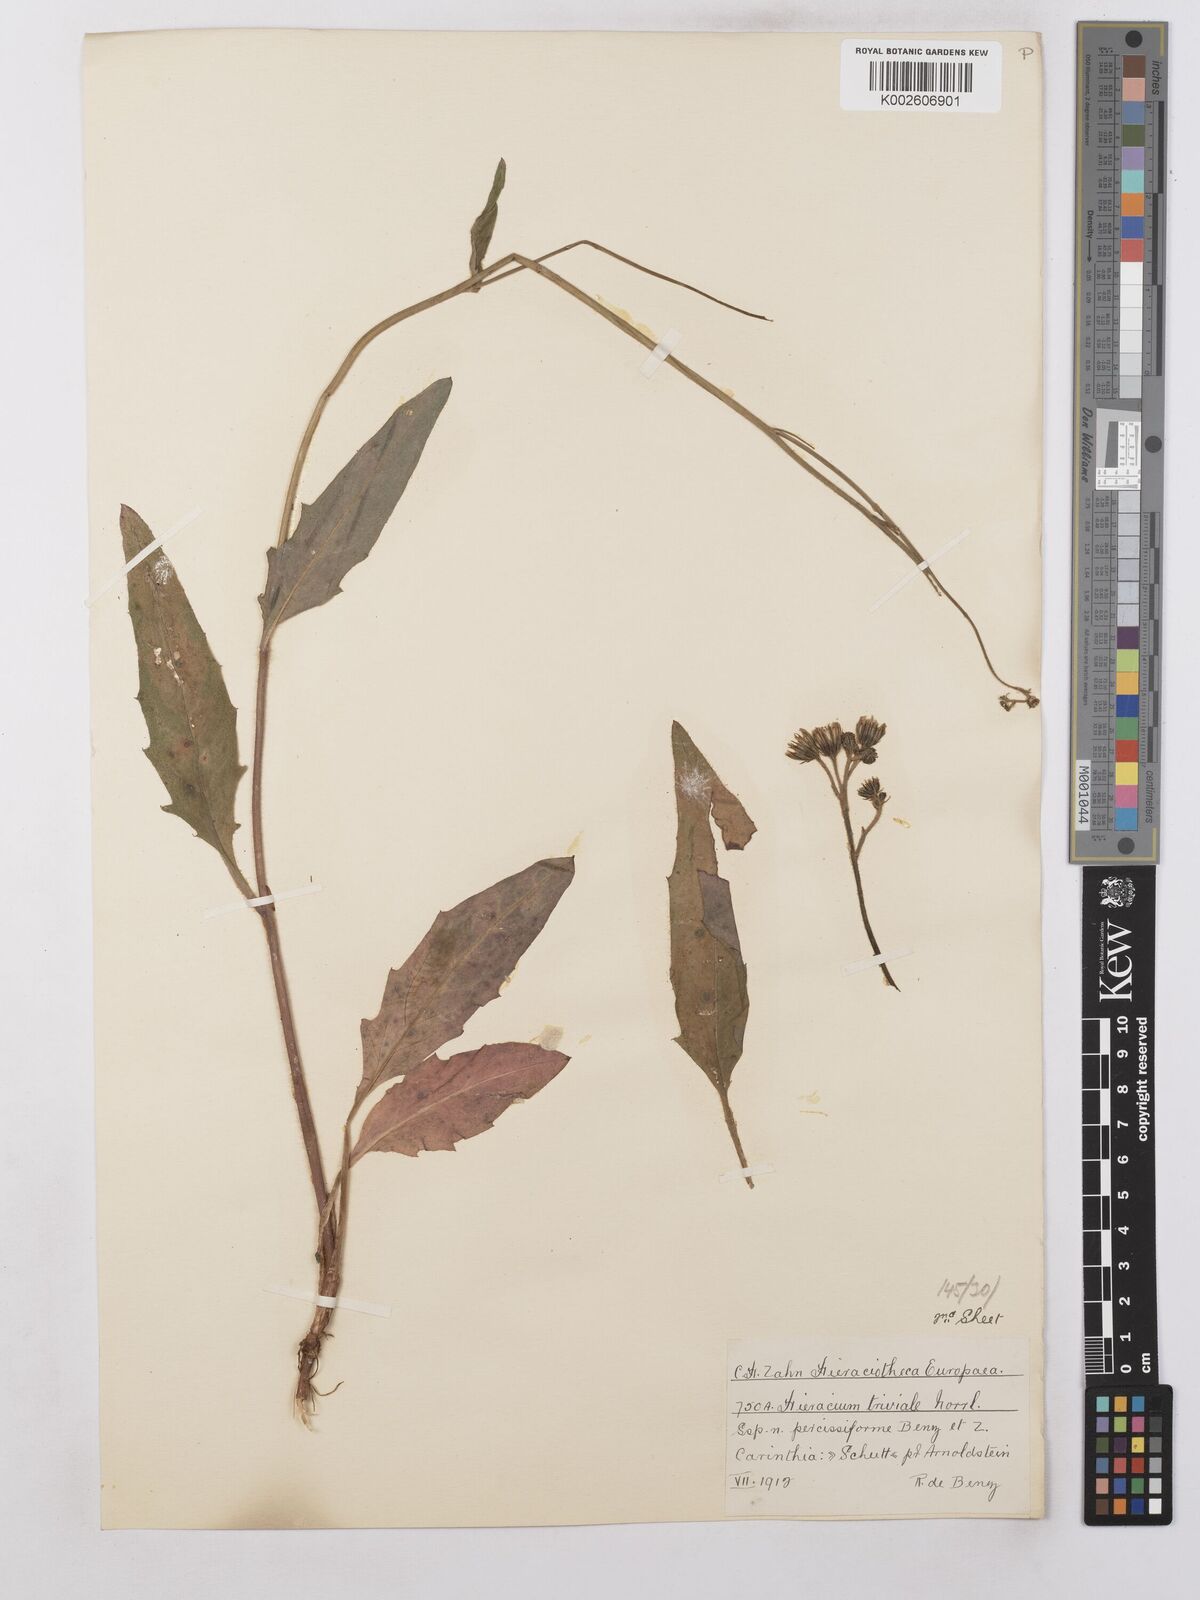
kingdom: Plantae
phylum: Tracheophyta
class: Magnoliopsida
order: Asterales
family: Asteraceae
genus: Hieracium
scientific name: Hieracium levicaule
